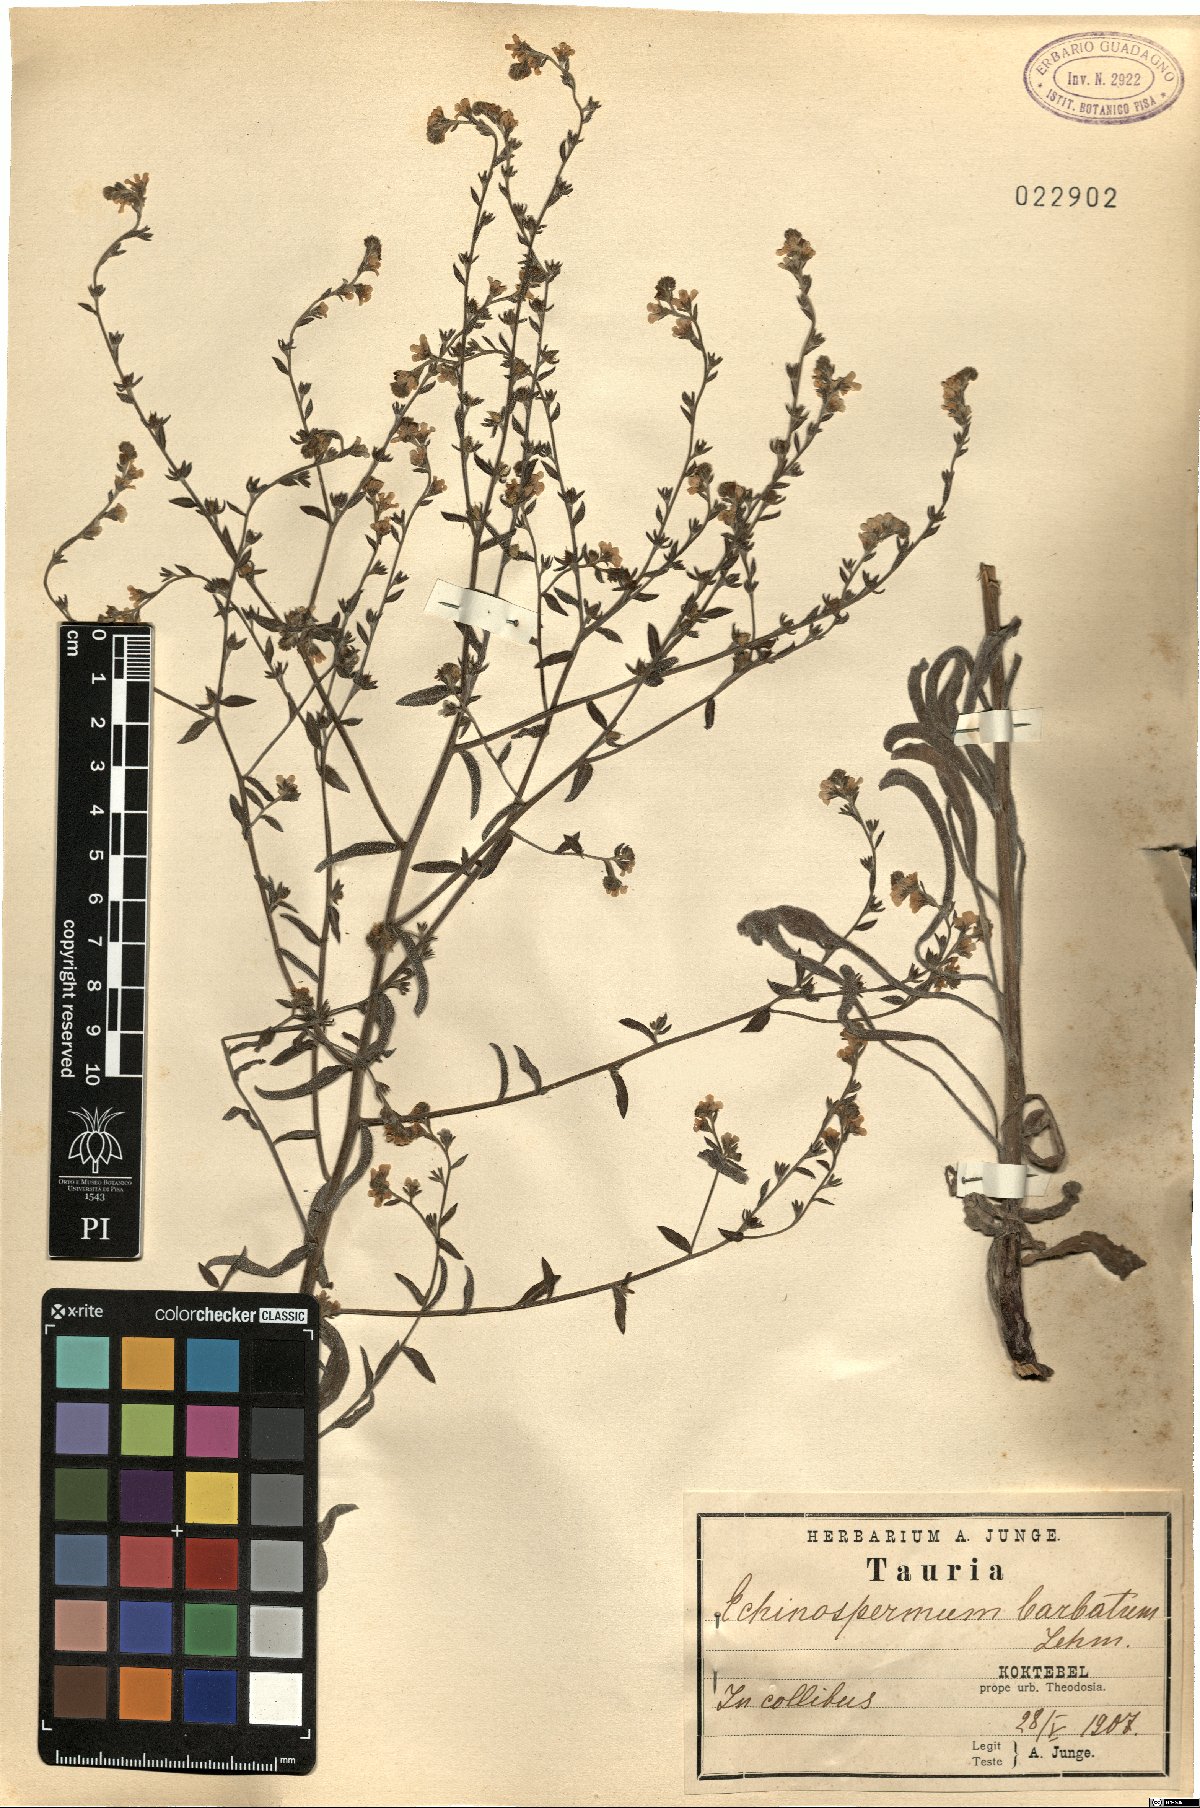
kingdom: Plantae
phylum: Tracheophyta
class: Magnoliopsida
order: Boraginales
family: Boraginaceae
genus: Lappula
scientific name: Lappula barbata
